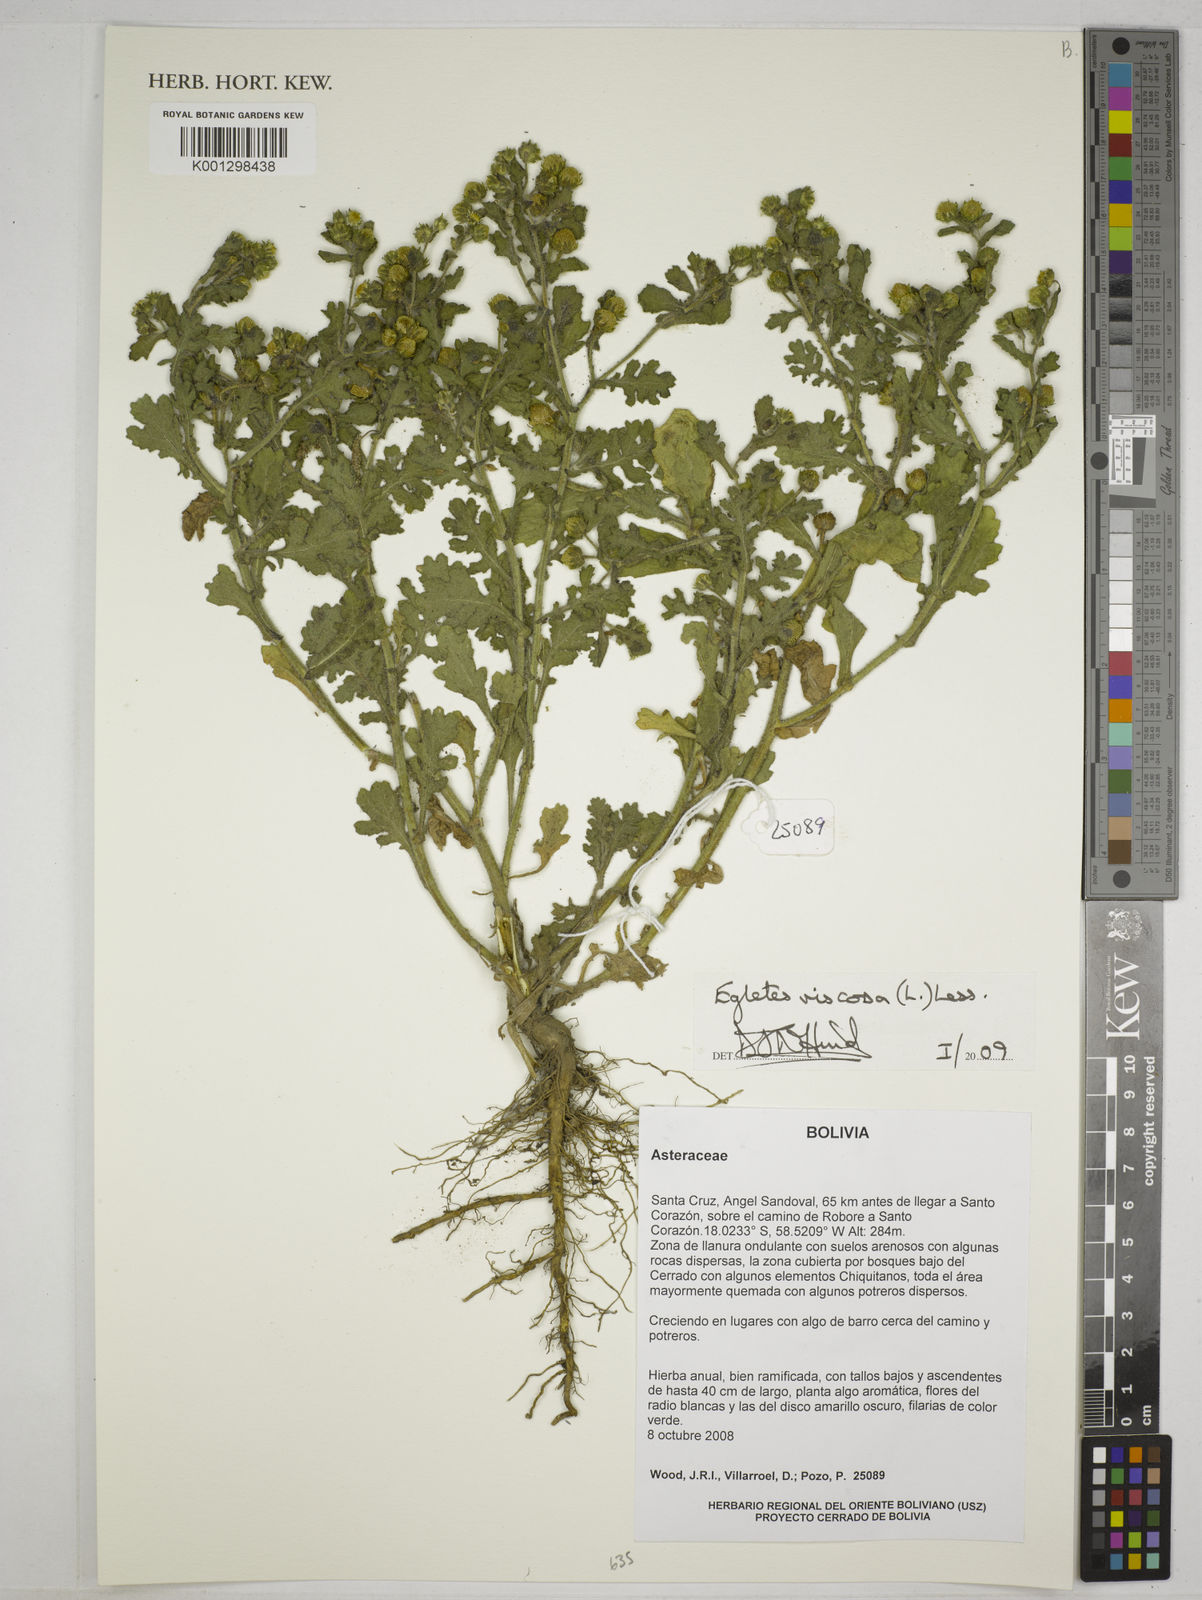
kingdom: Plantae
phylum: Tracheophyta
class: Magnoliopsida
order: Asterales
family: Asteraceae
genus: Egletes
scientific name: Egletes viscosa
